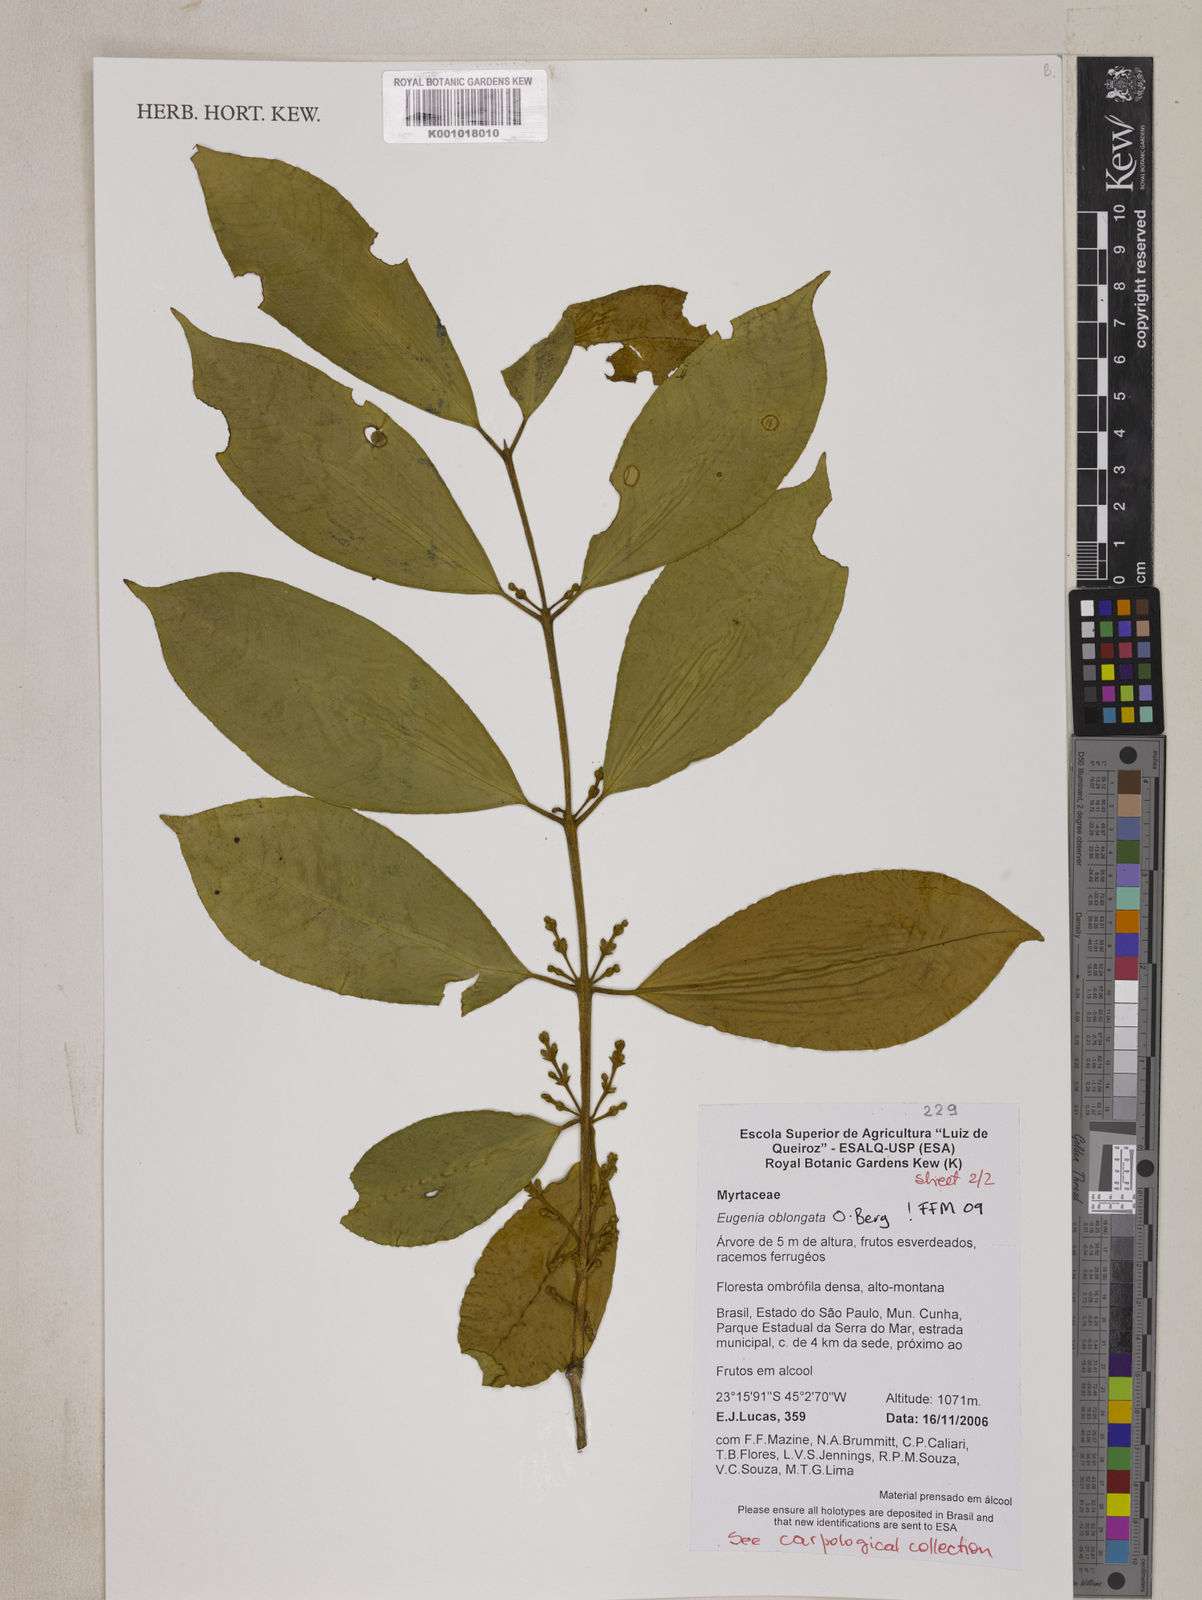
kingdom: Plantae
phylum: Tracheophyta
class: Magnoliopsida
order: Myrtales
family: Myrtaceae
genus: Eugenia
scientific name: Eugenia oblongata
